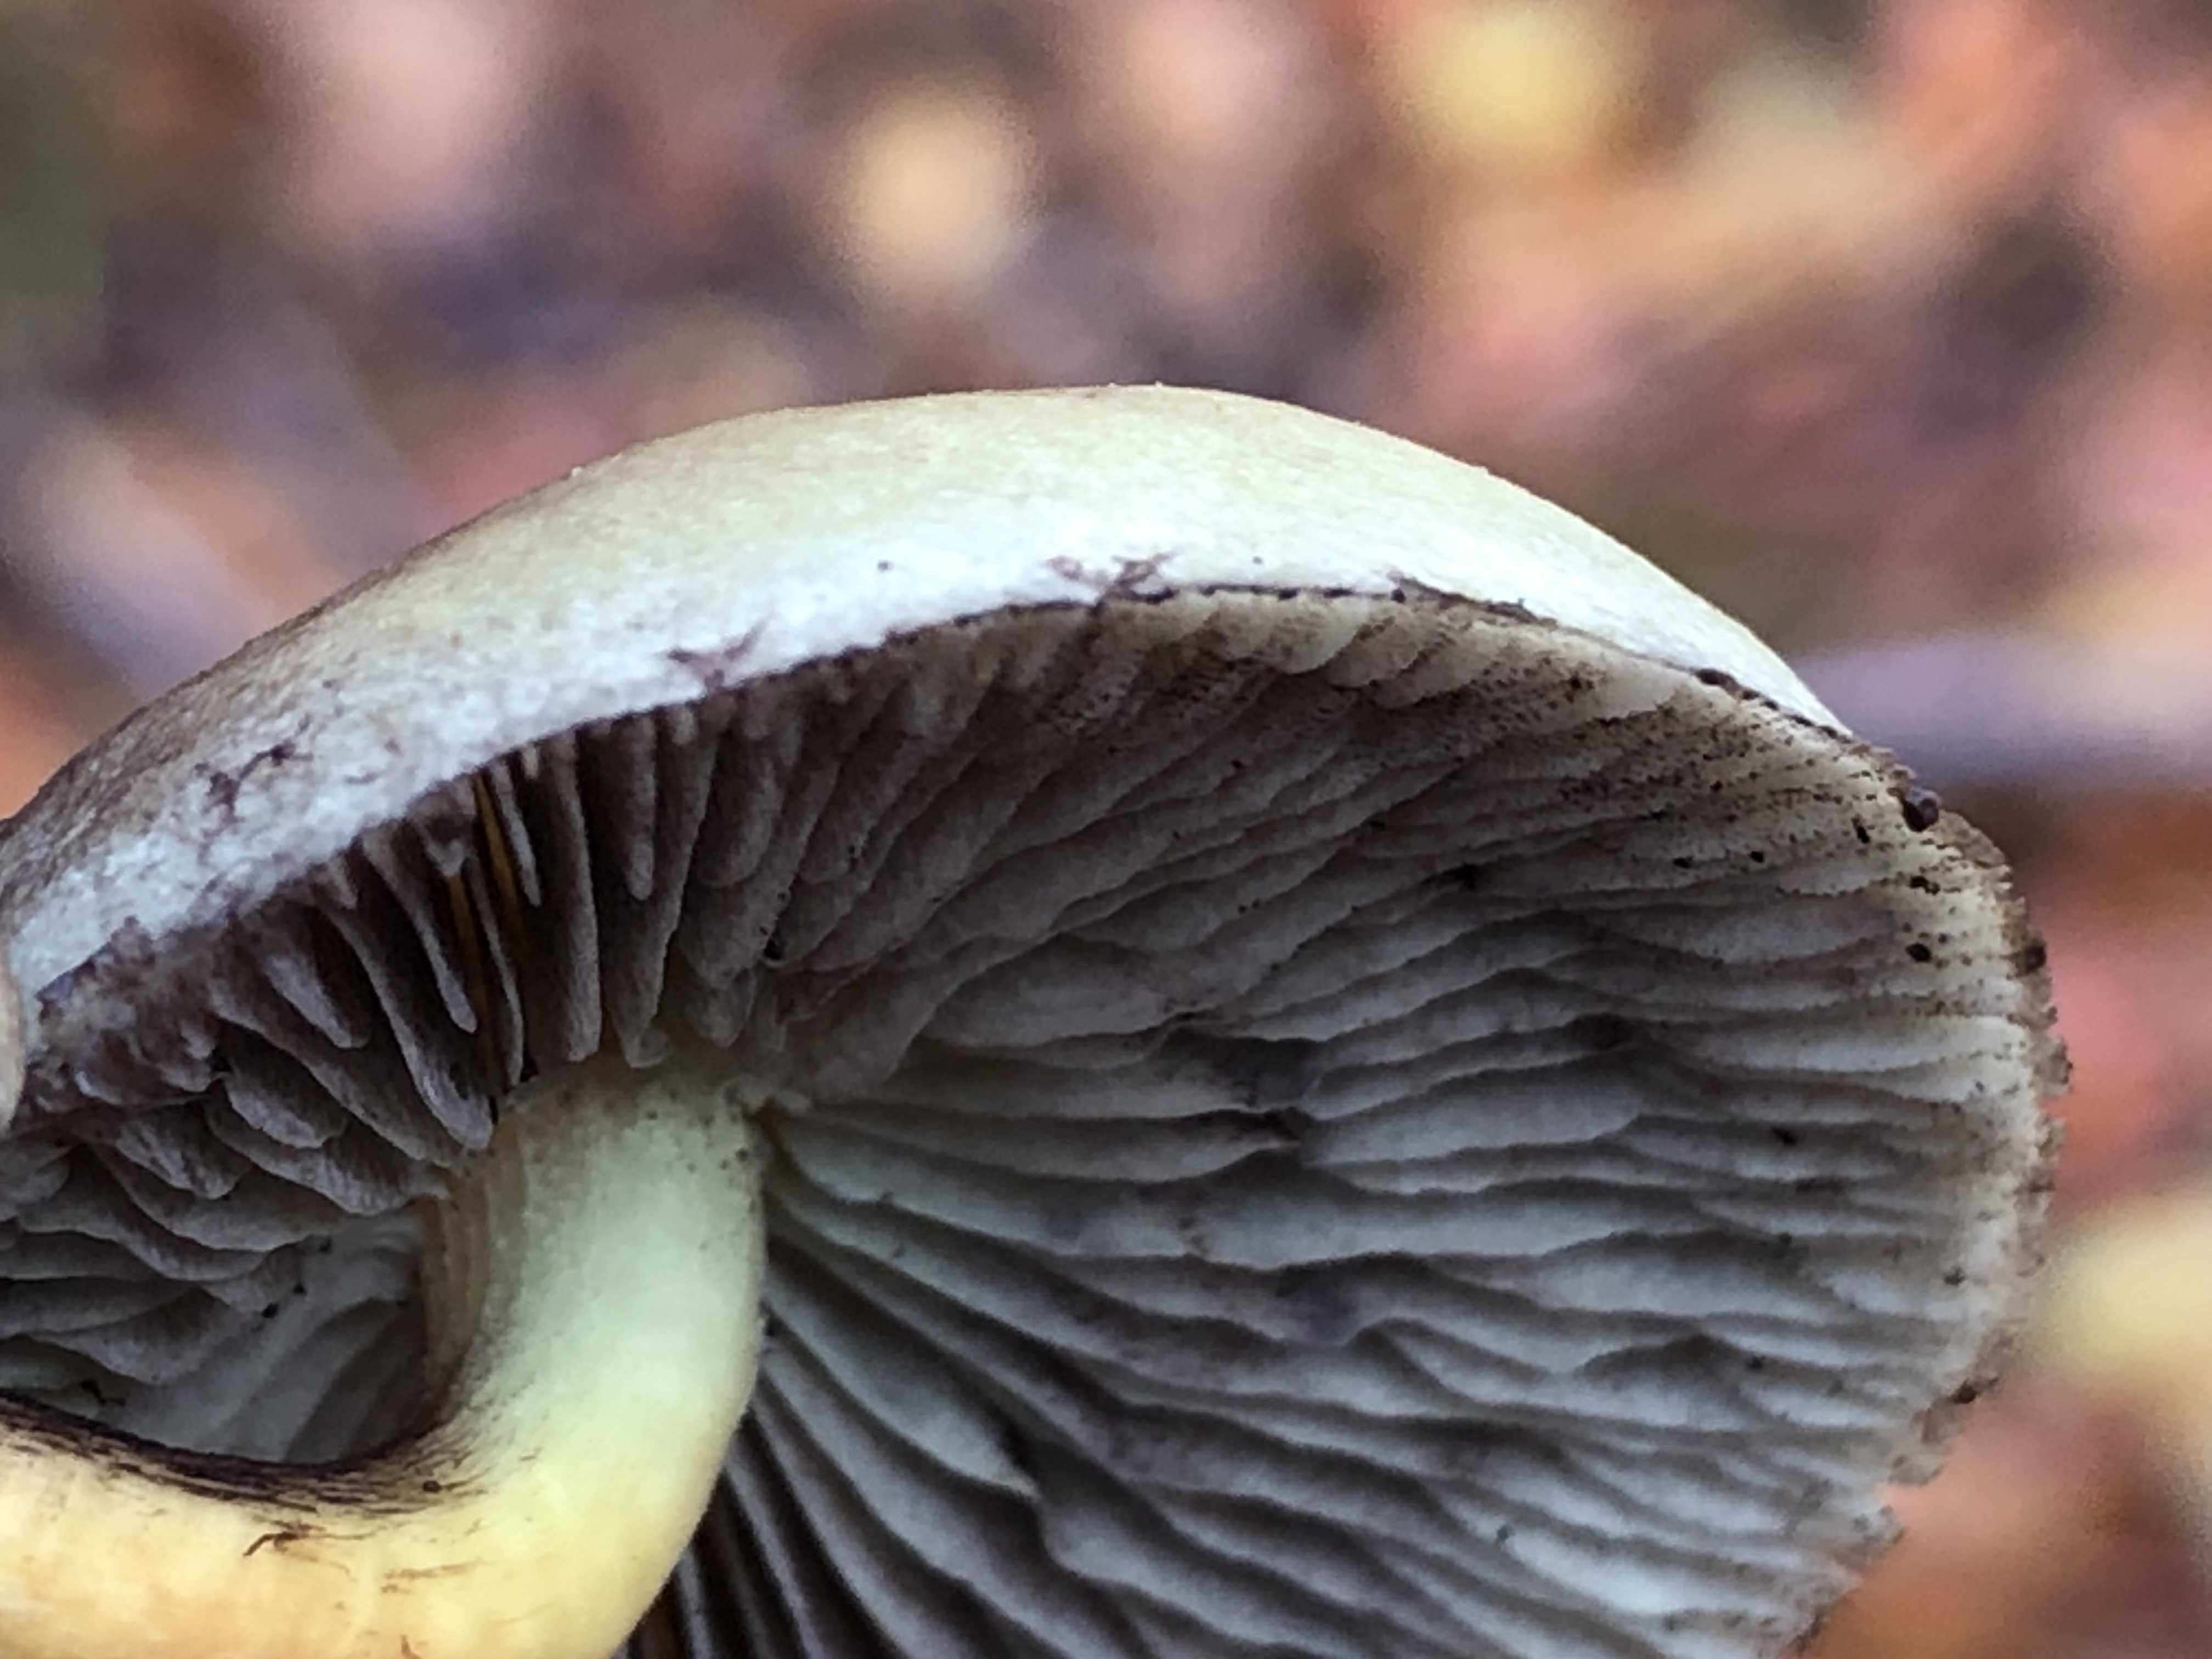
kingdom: Fungi
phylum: Basidiomycota
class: Agaricomycetes
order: Agaricales
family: Strophariaceae
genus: Hypholoma
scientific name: Hypholoma fasciculare
